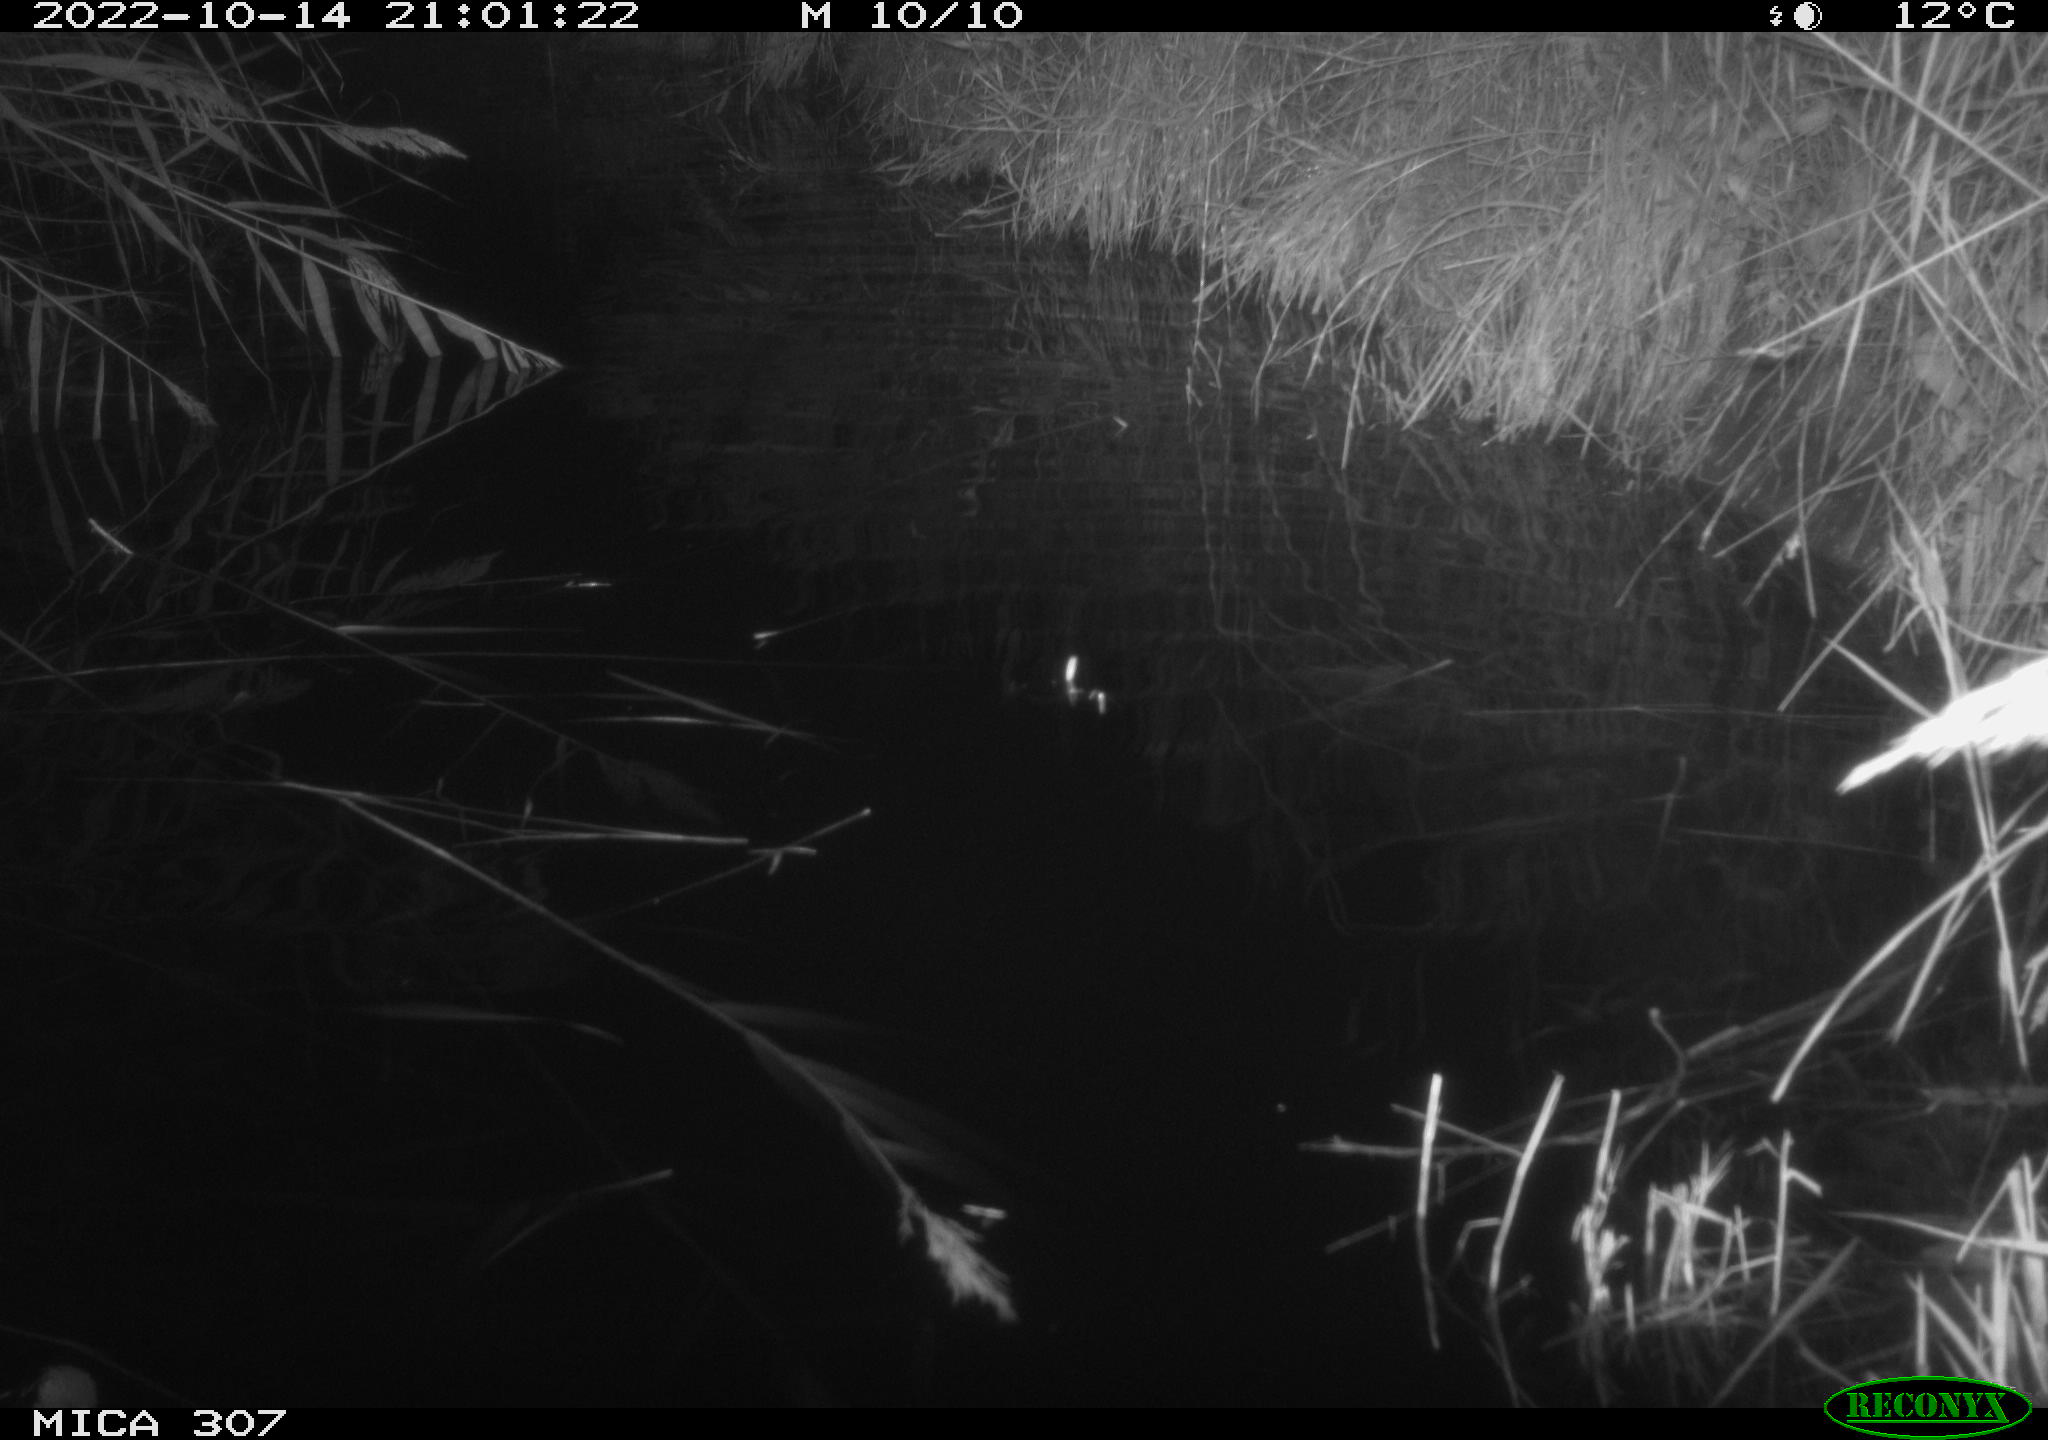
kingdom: Animalia
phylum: Chordata
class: Mammalia
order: Rodentia
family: Cricetidae
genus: Ondatra
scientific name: Ondatra zibethicus
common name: Muskrat
